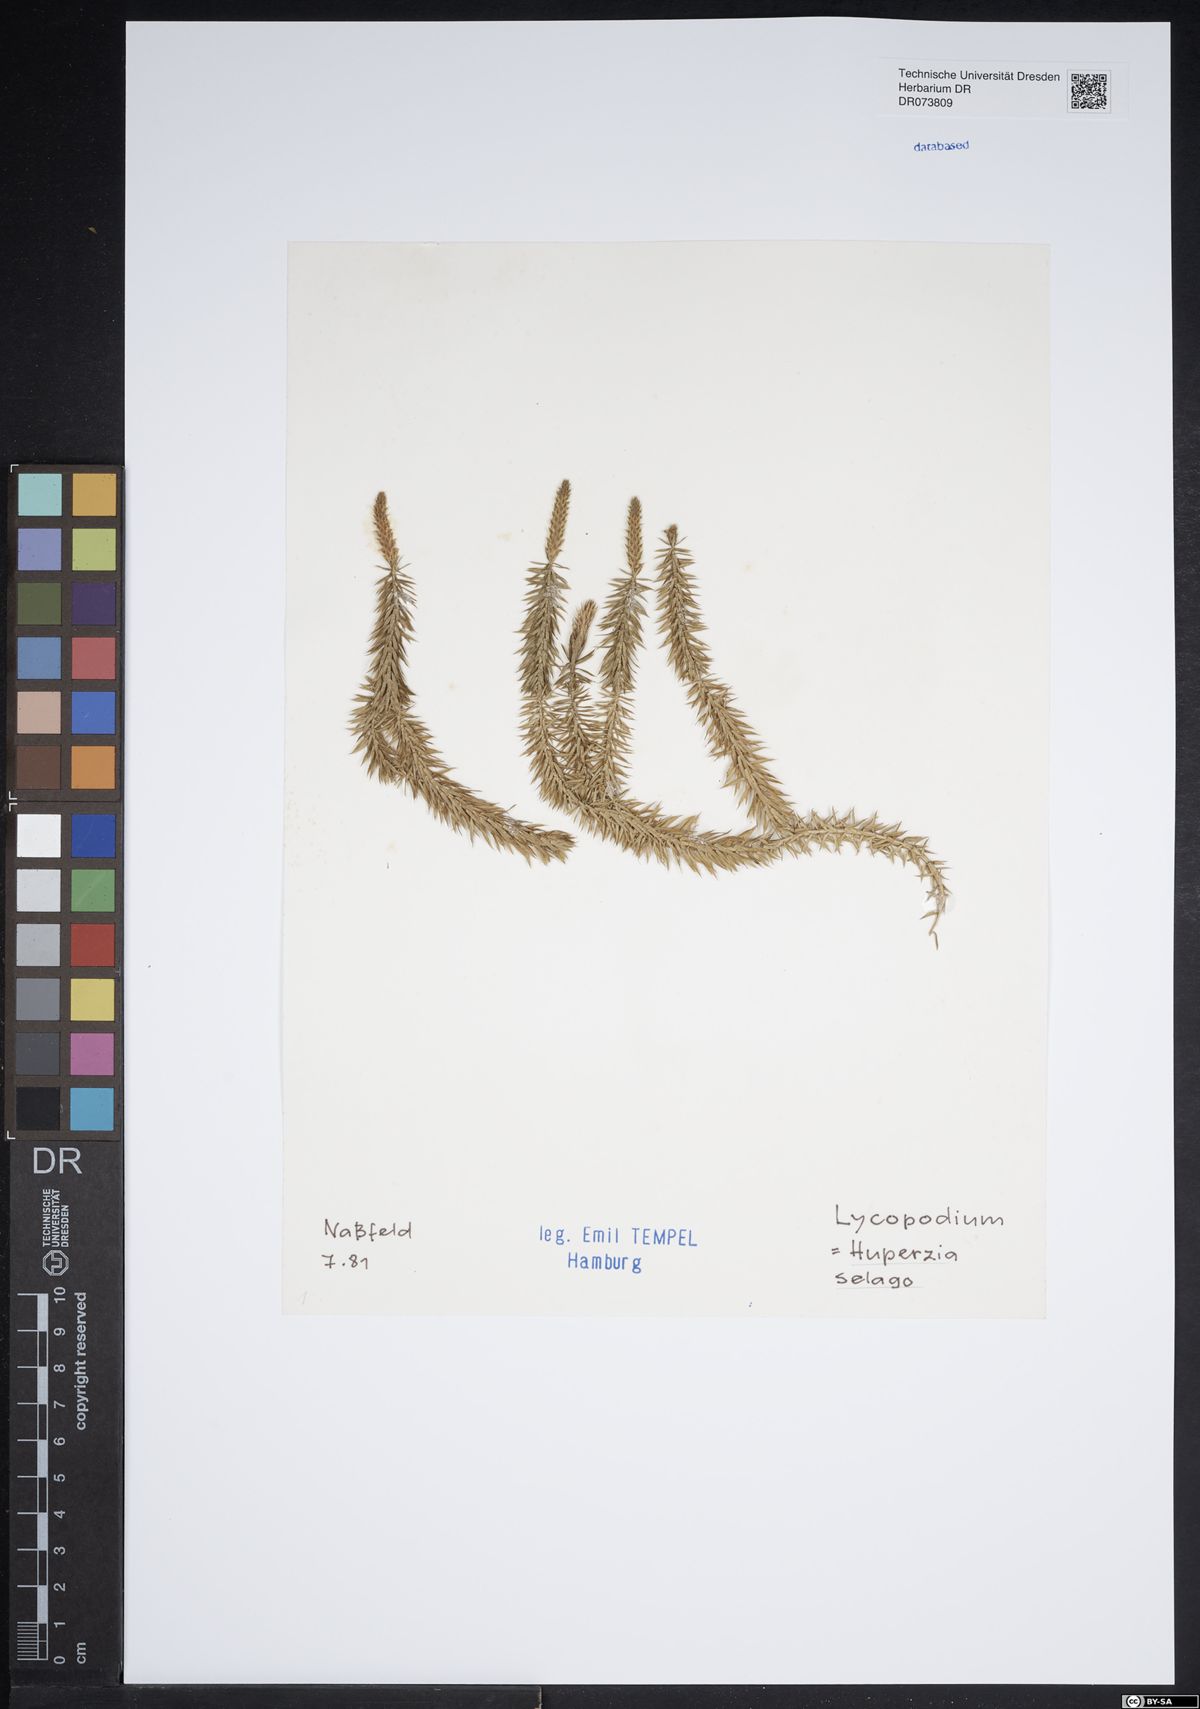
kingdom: Plantae
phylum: Tracheophyta
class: Lycopodiopsida
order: Lycopodiales
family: Lycopodiaceae
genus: Huperzia
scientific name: Huperzia selago
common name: Northern firmoss
